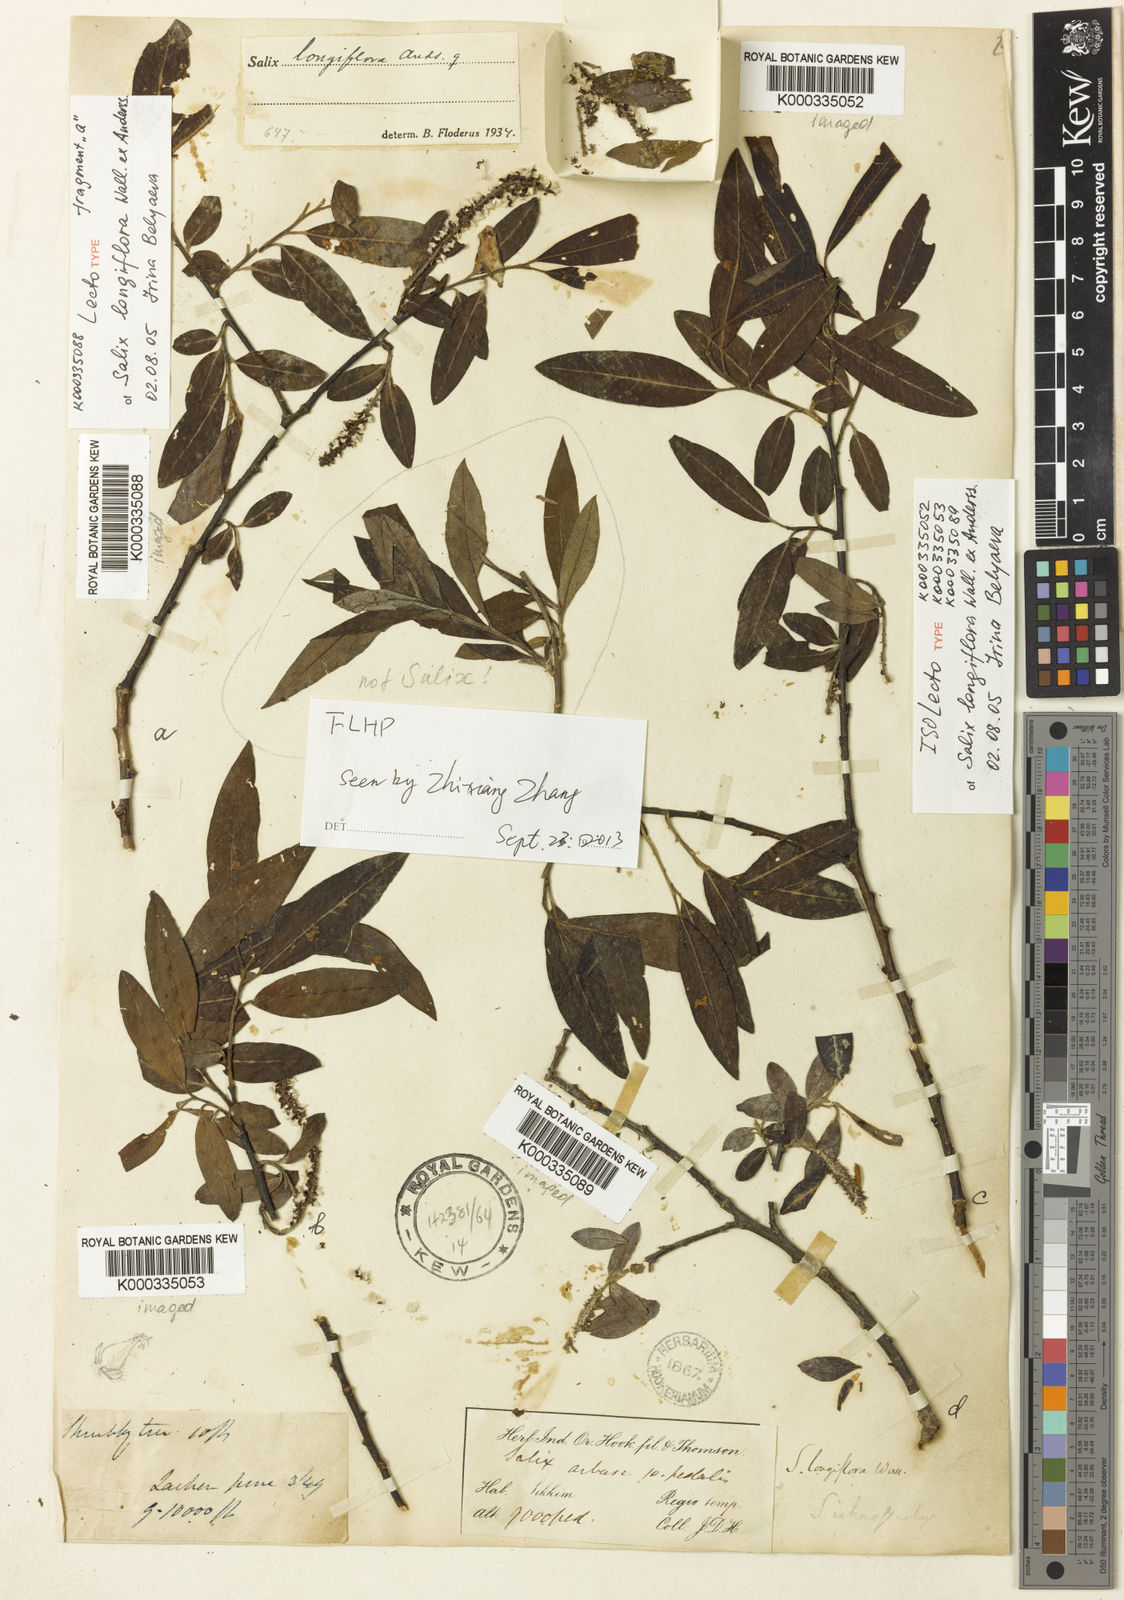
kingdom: Plantae
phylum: Tracheophyta
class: Magnoliopsida
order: Malpighiales
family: Salicaceae
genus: Salix
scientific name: Salix longiflora
